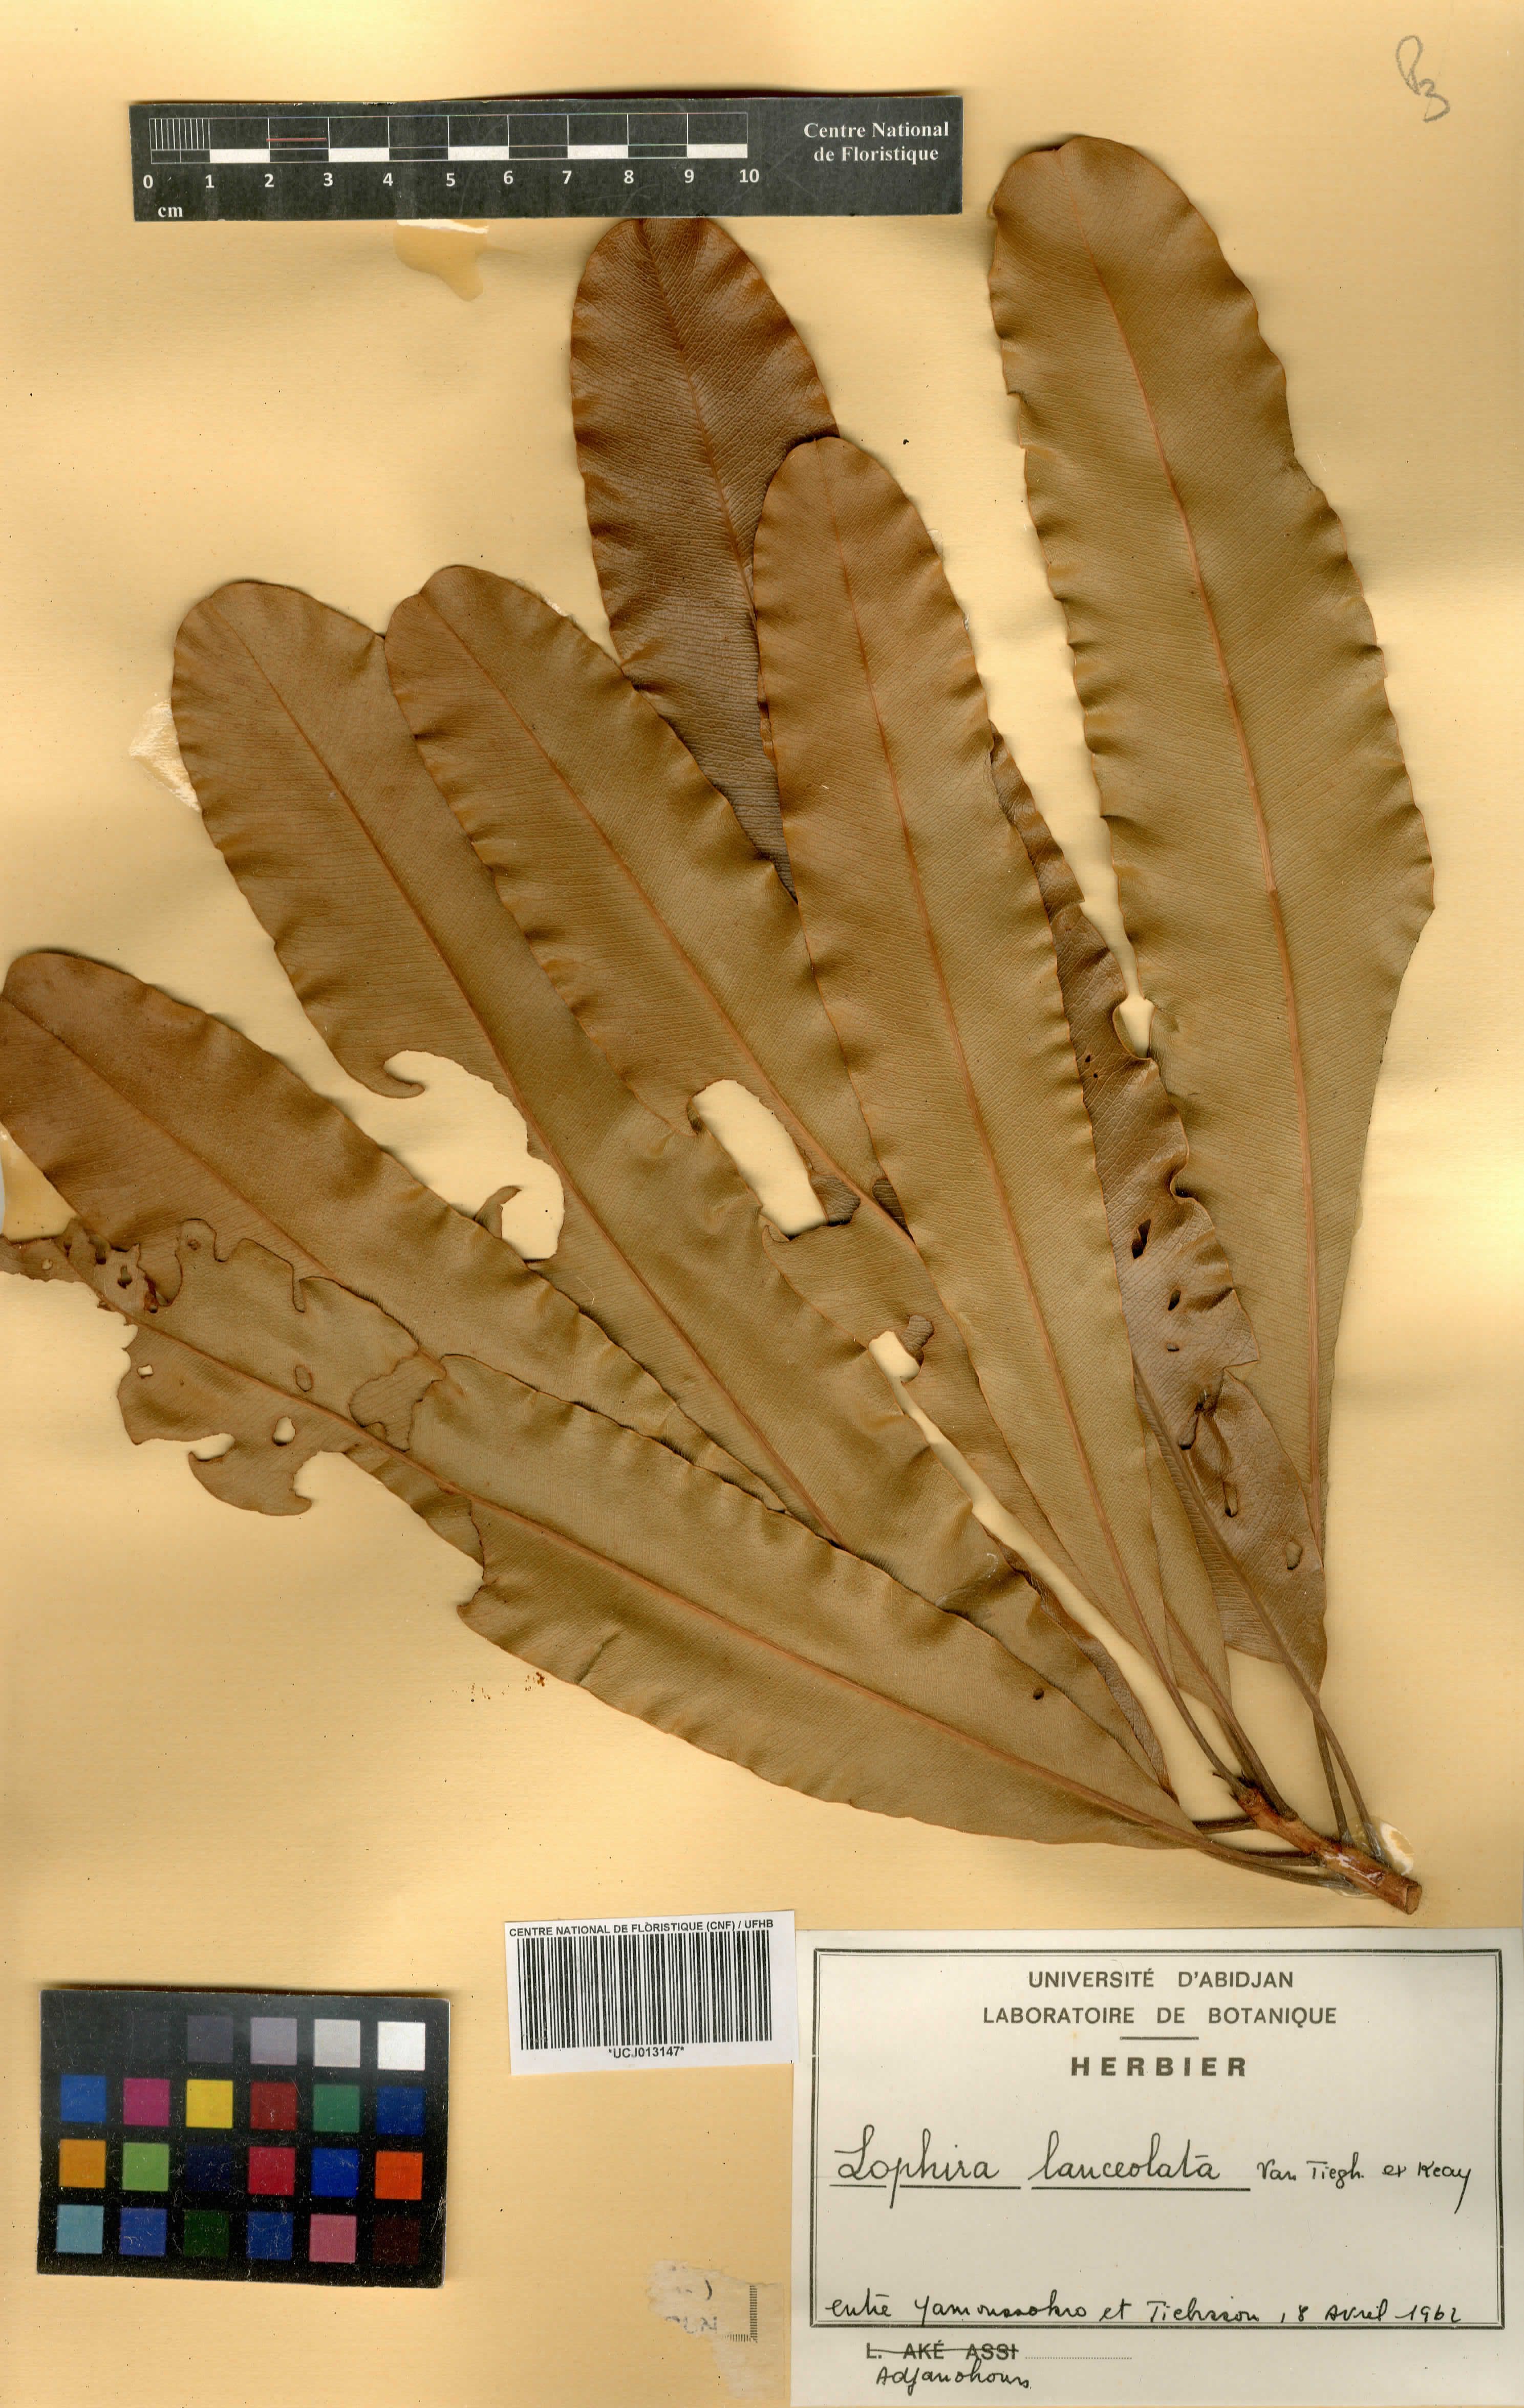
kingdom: Plantae
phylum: Tracheophyta
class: Magnoliopsida
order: Malpighiales
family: Ochnaceae
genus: Lophira
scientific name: Lophira lanceolata
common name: Dwarf red ironwood
